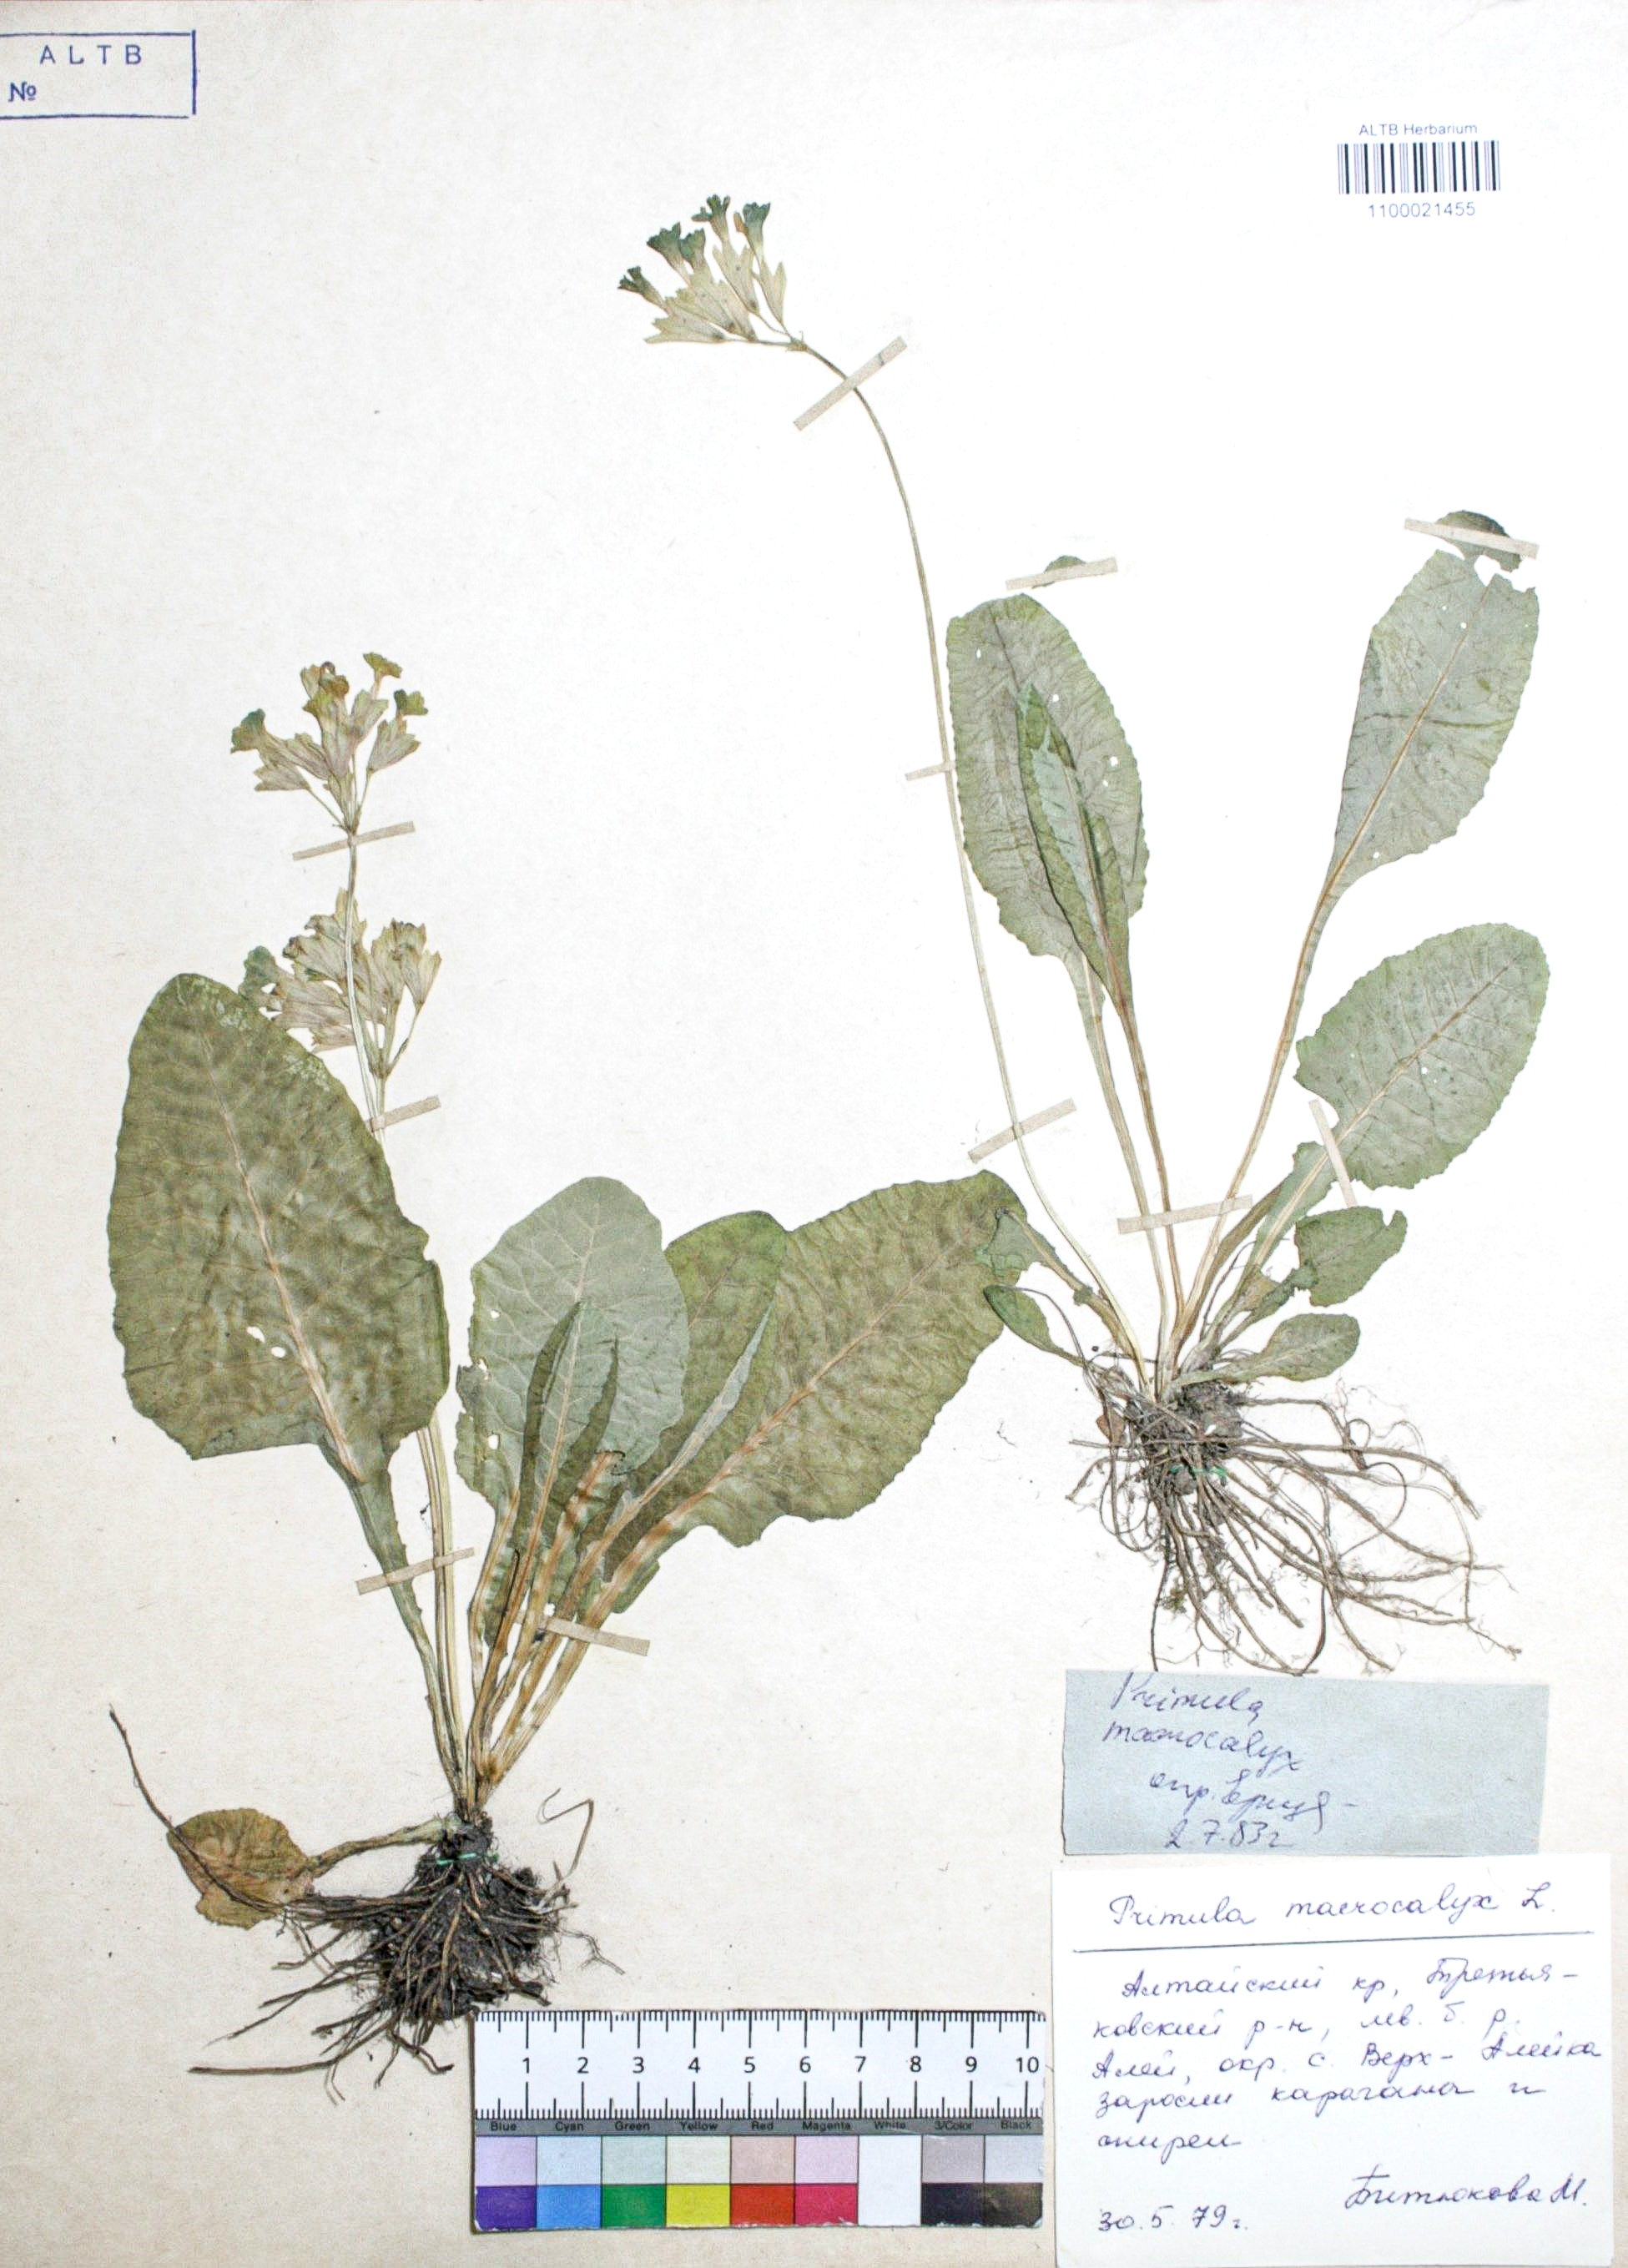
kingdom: Plantae
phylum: Tracheophyta
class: Magnoliopsida
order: Ericales
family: Primulaceae
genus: Primula
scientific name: Primula veris
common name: Cowslip
